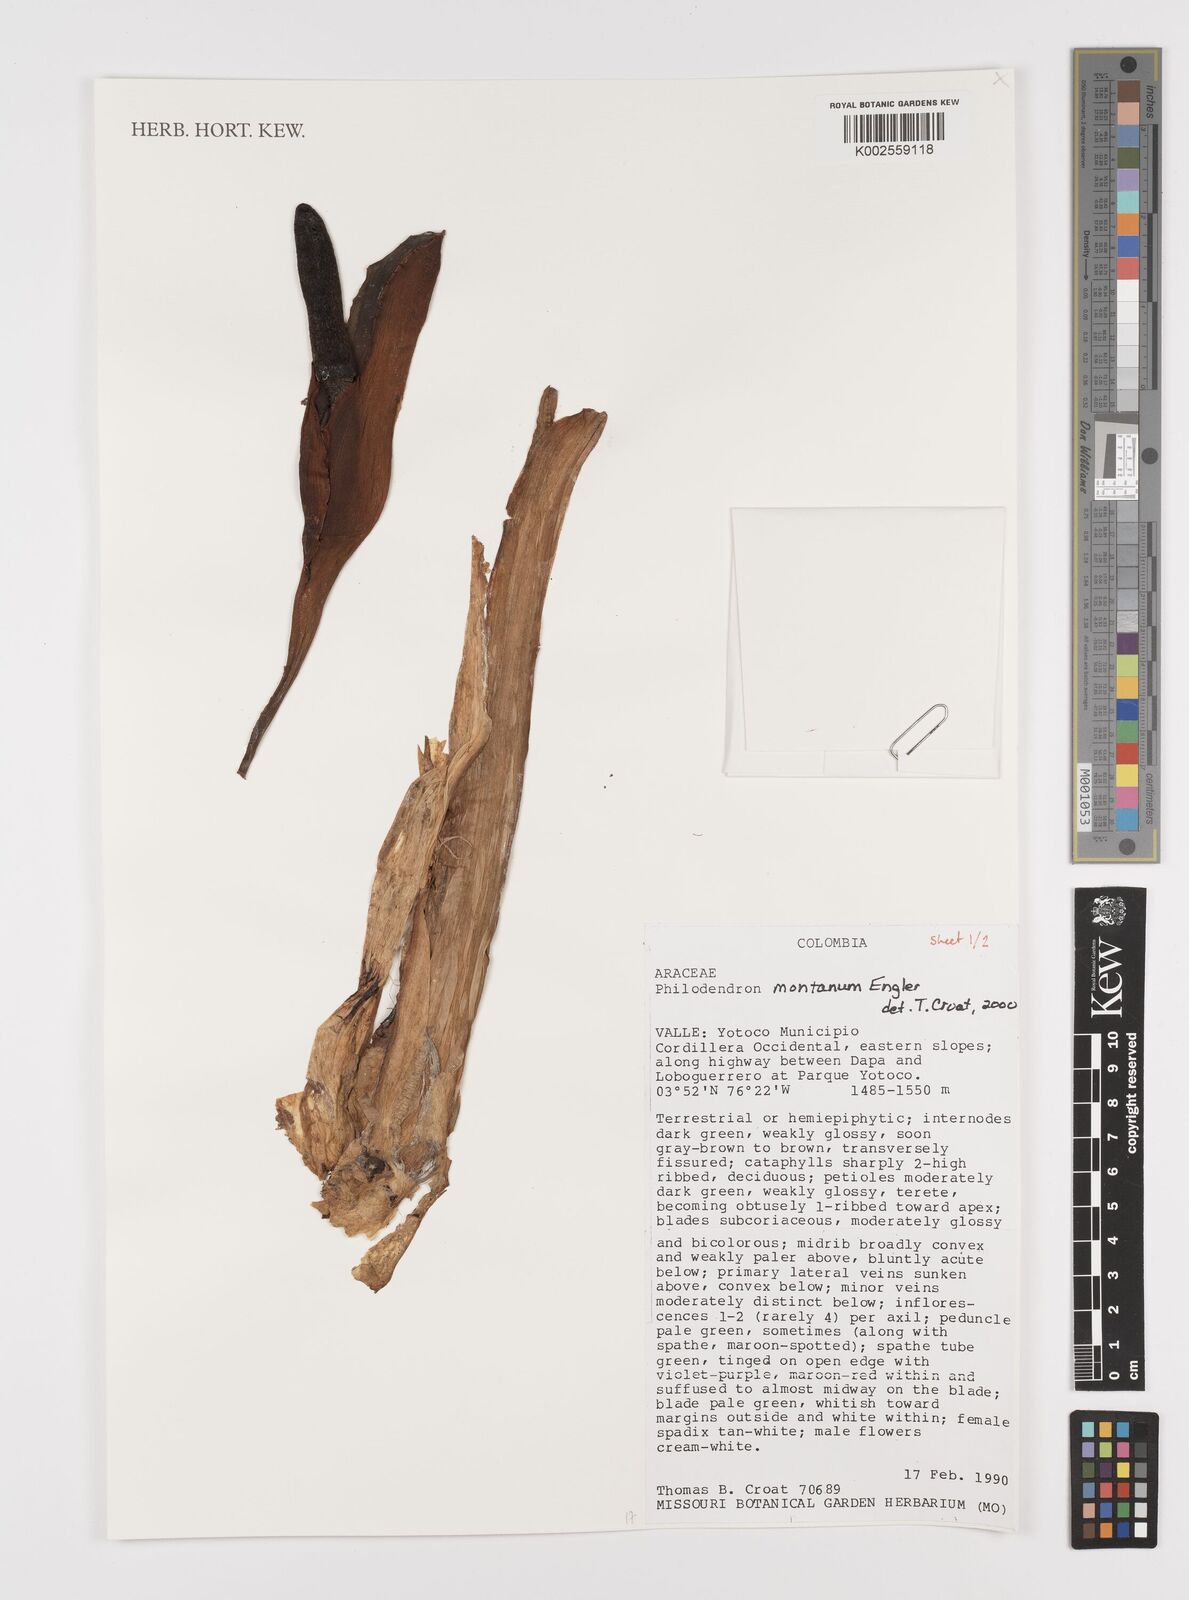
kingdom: Plantae
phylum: Tracheophyta
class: Liliopsida
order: Alismatales
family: Araceae
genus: Philodendron
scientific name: Philodendron montanum
